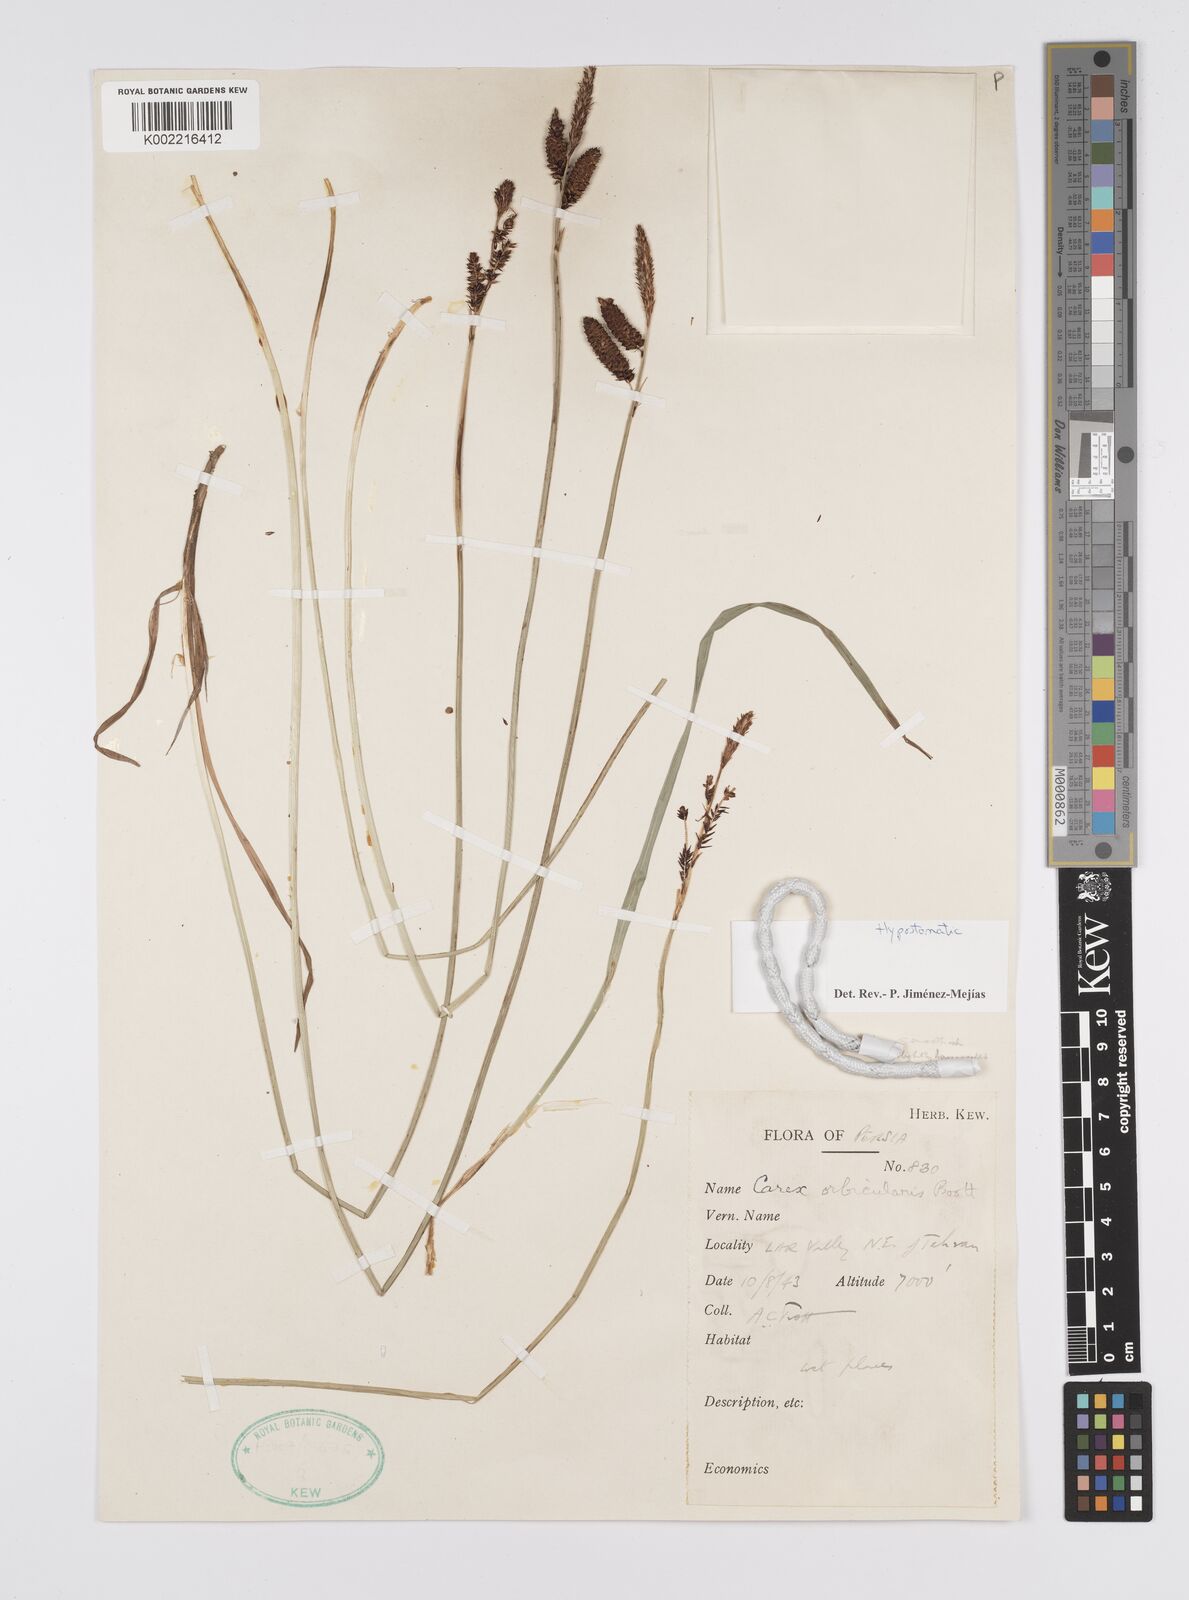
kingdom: Plantae
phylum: Tracheophyta
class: Liliopsida
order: Poales
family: Cyperaceae
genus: Carex
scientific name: Carex orbicularis
